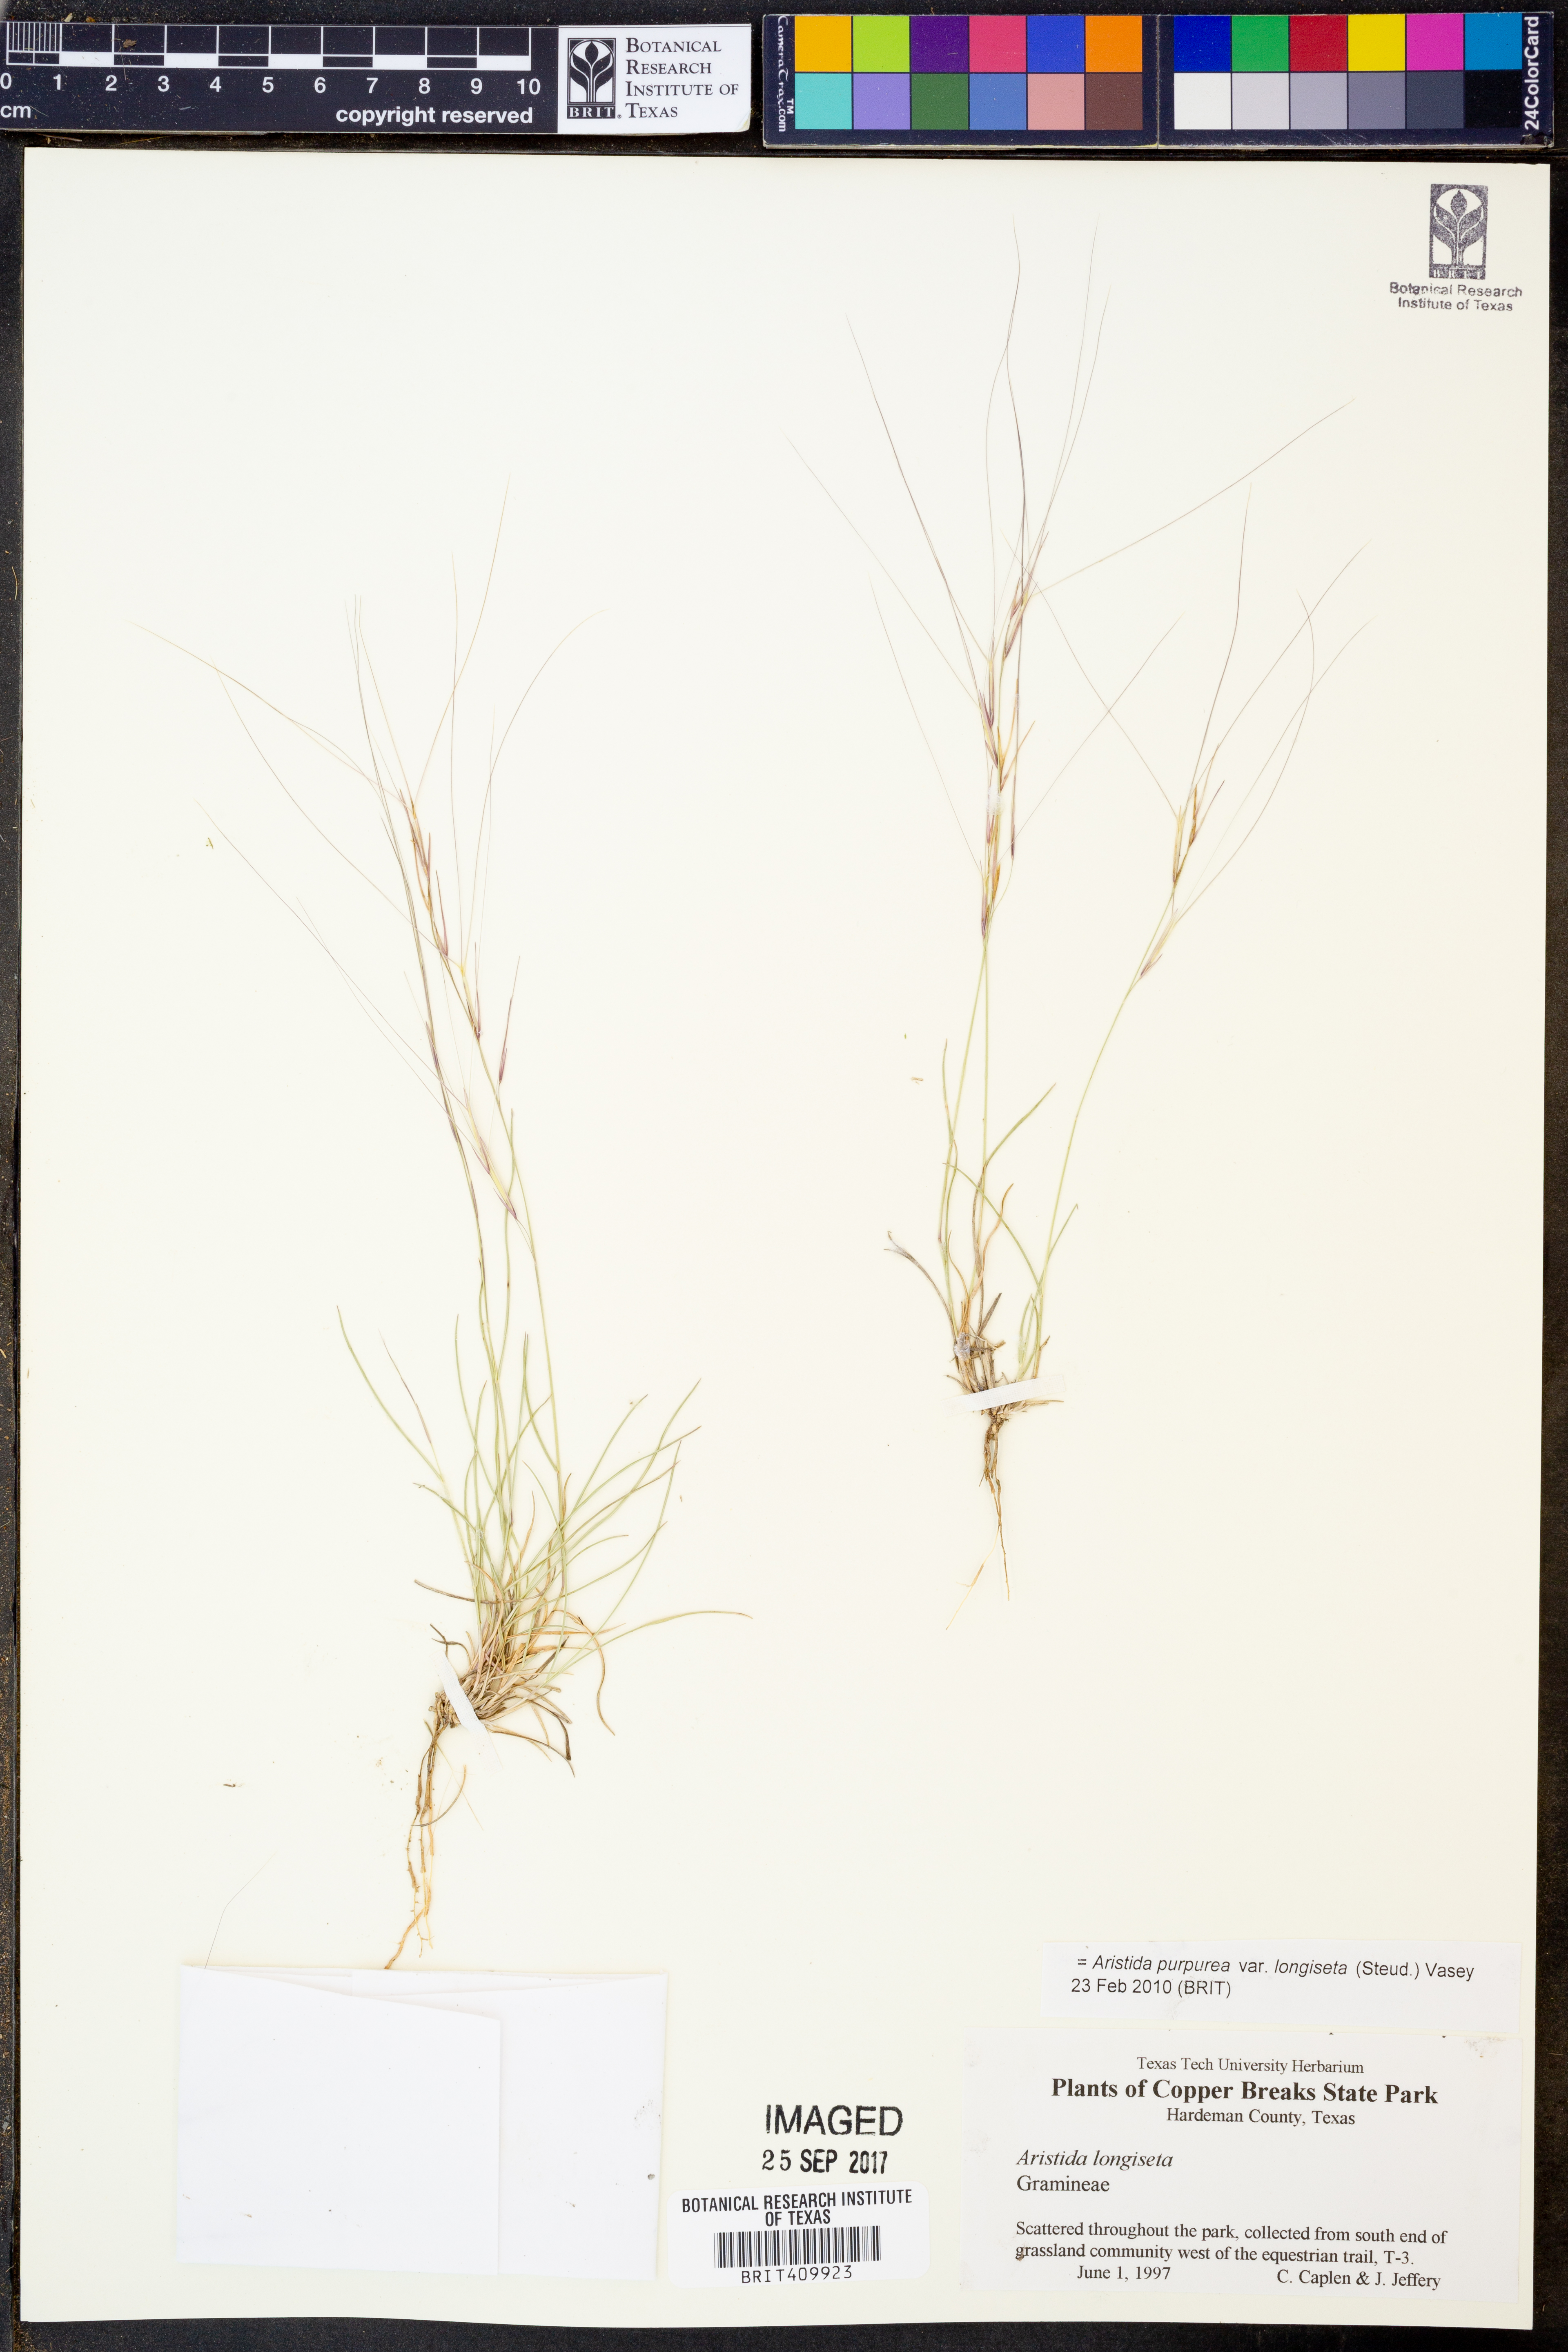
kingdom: Plantae
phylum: Tracheophyta
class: Liliopsida
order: Poales
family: Poaceae
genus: Aristida
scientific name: Aristida longiseta
